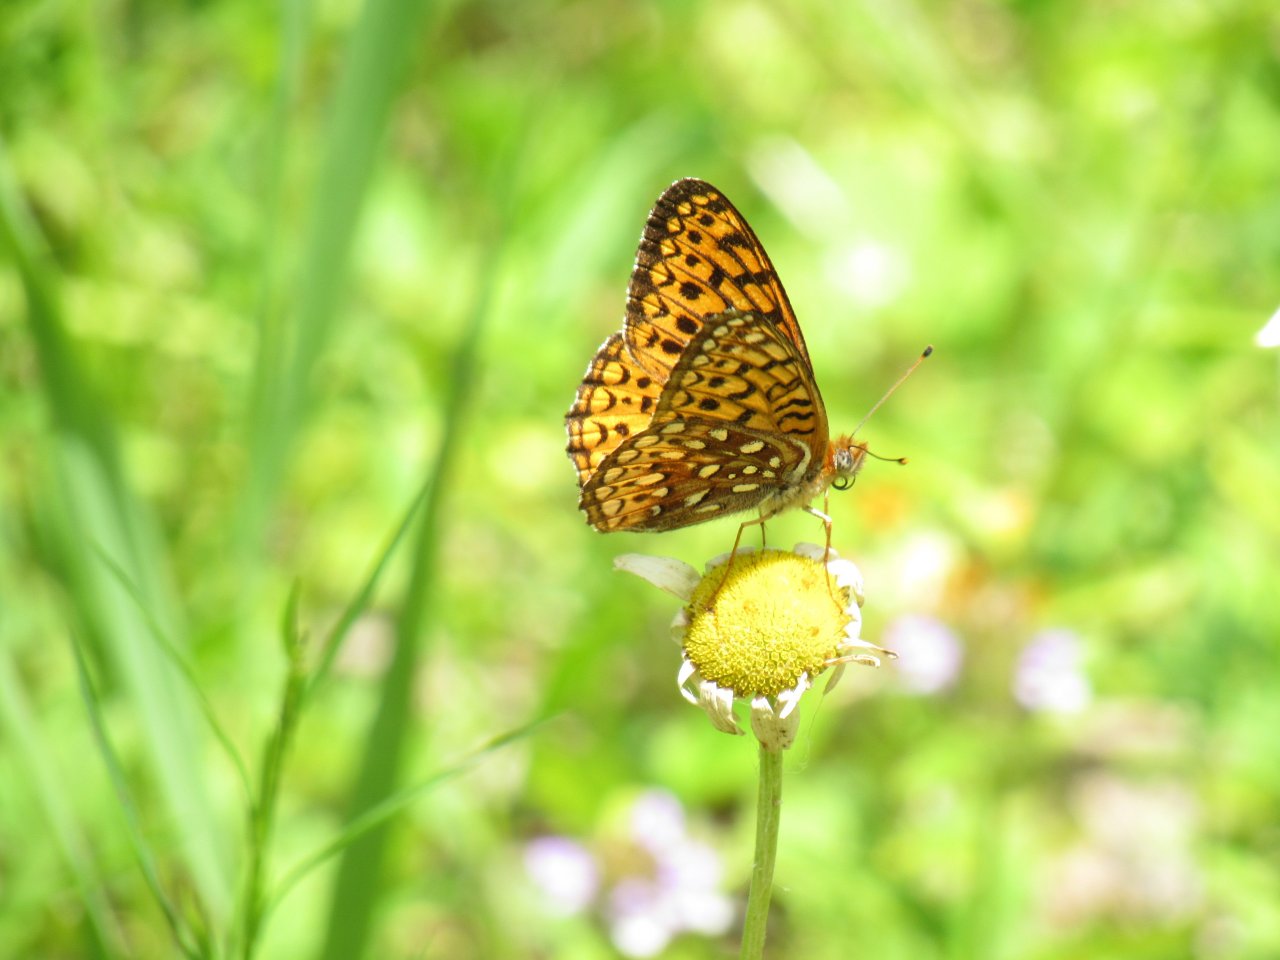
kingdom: Animalia
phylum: Arthropoda
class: Insecta
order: Lepidoptera
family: Nymphalidae
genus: Speyeria
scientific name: Speyeria atlantis
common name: Atlantis Fritillary
